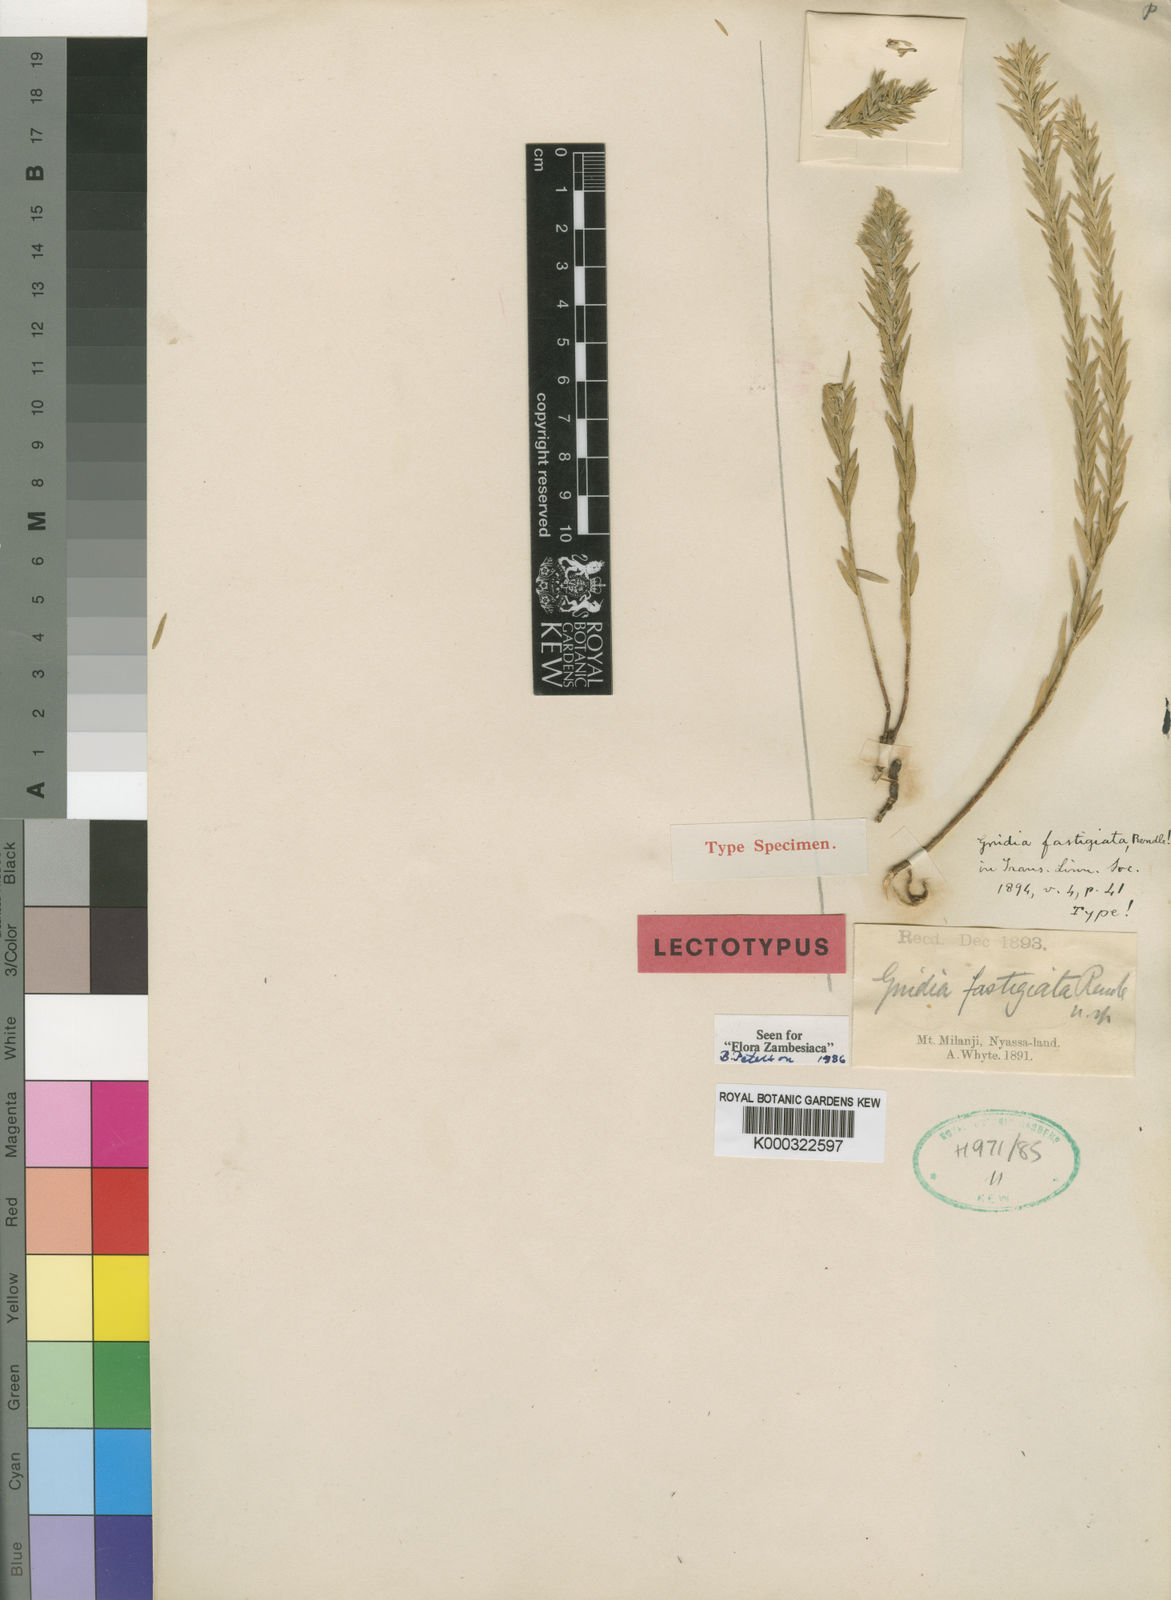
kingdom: Plantae
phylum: Tracheophyta
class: Magnoliopsida
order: Malvales
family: Thymelaeaceae
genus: Gnidia
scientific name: Gnidia fastigiata
